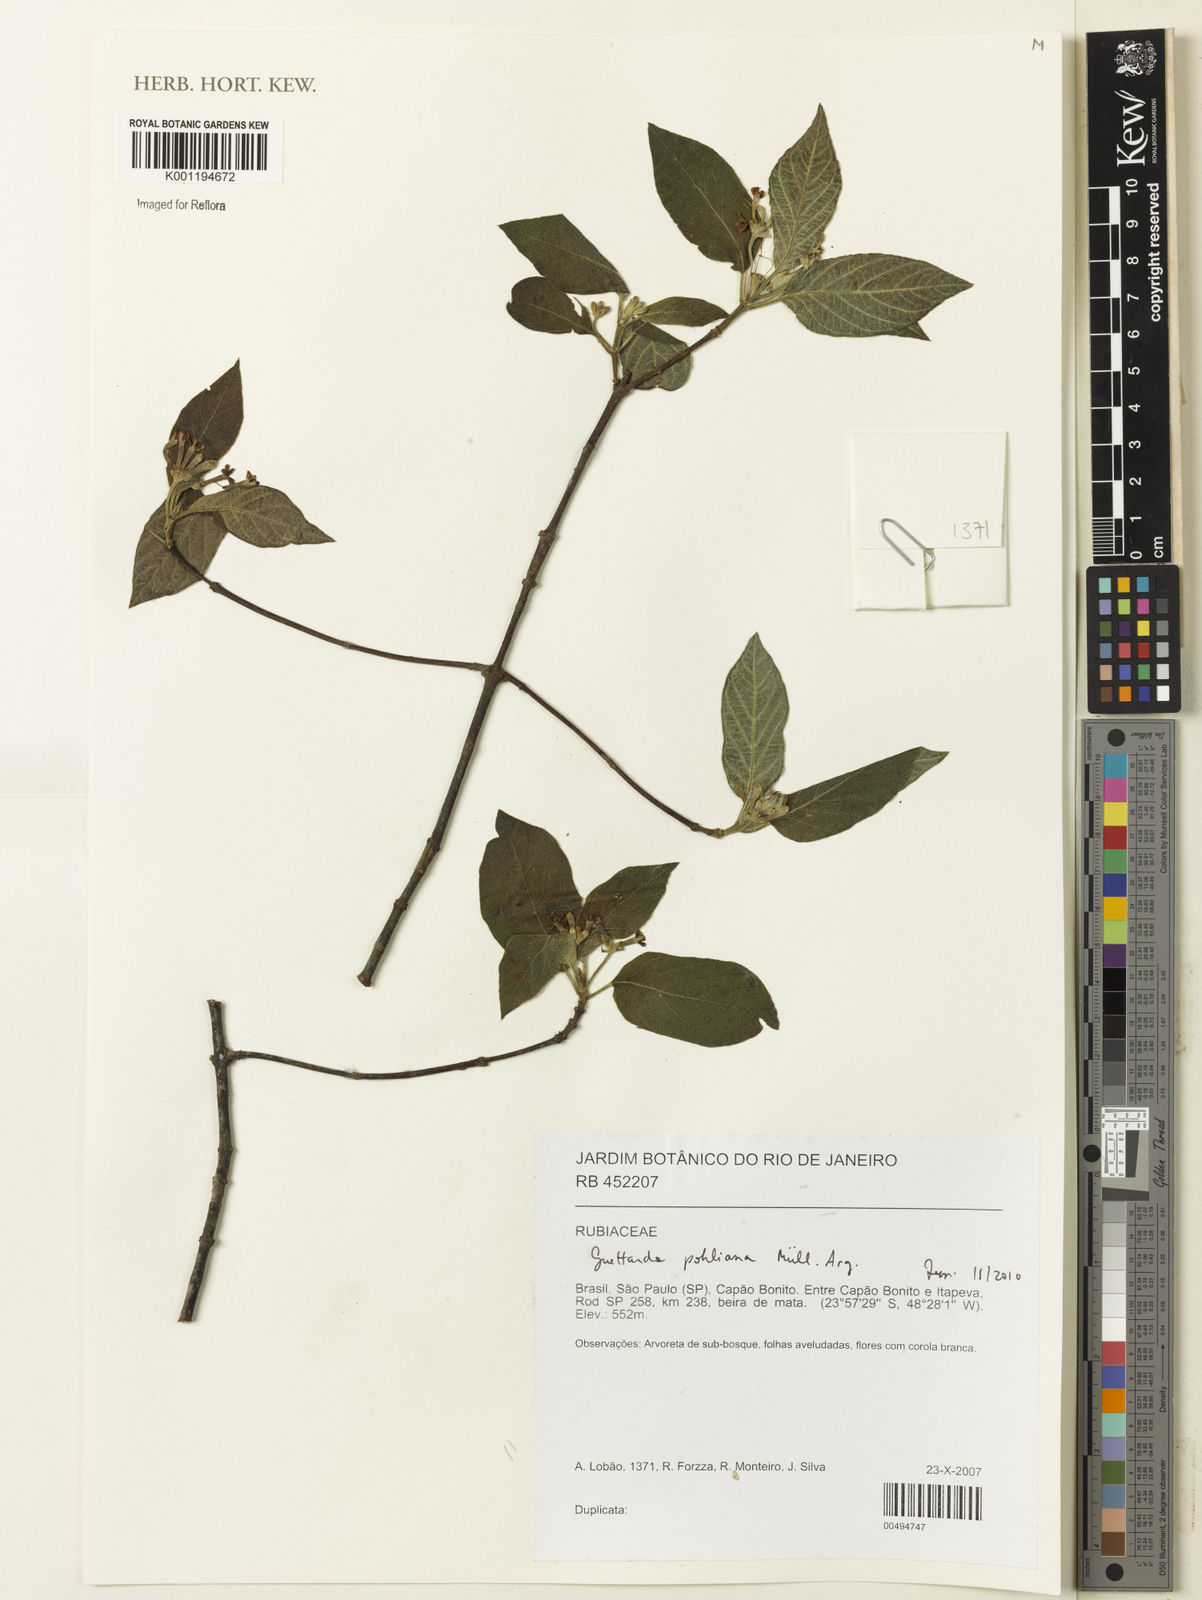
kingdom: Plantae
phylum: Tracheophyta
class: Magnoliopsida
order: Gentianales
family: Rubiaceae
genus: Guettarda
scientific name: Guettarda
